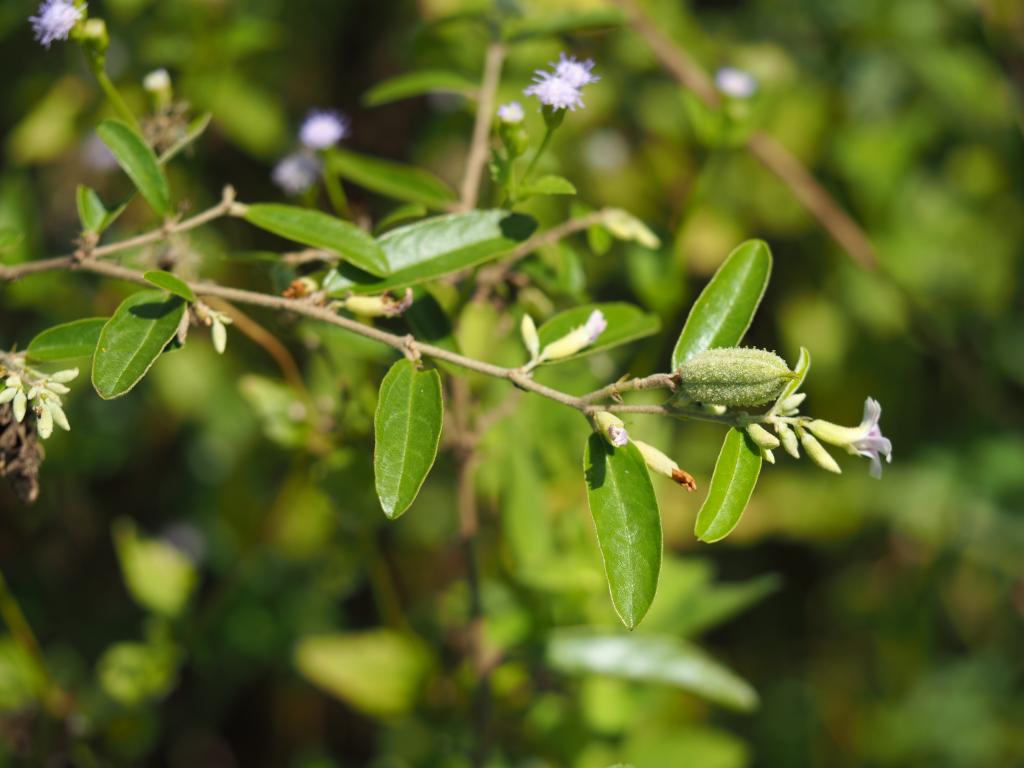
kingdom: Plantae
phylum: Tracheophyta
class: Magnoliopsida
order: Malvales
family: Malvaceae
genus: Helicteres
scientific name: Helicteres augustifolia
